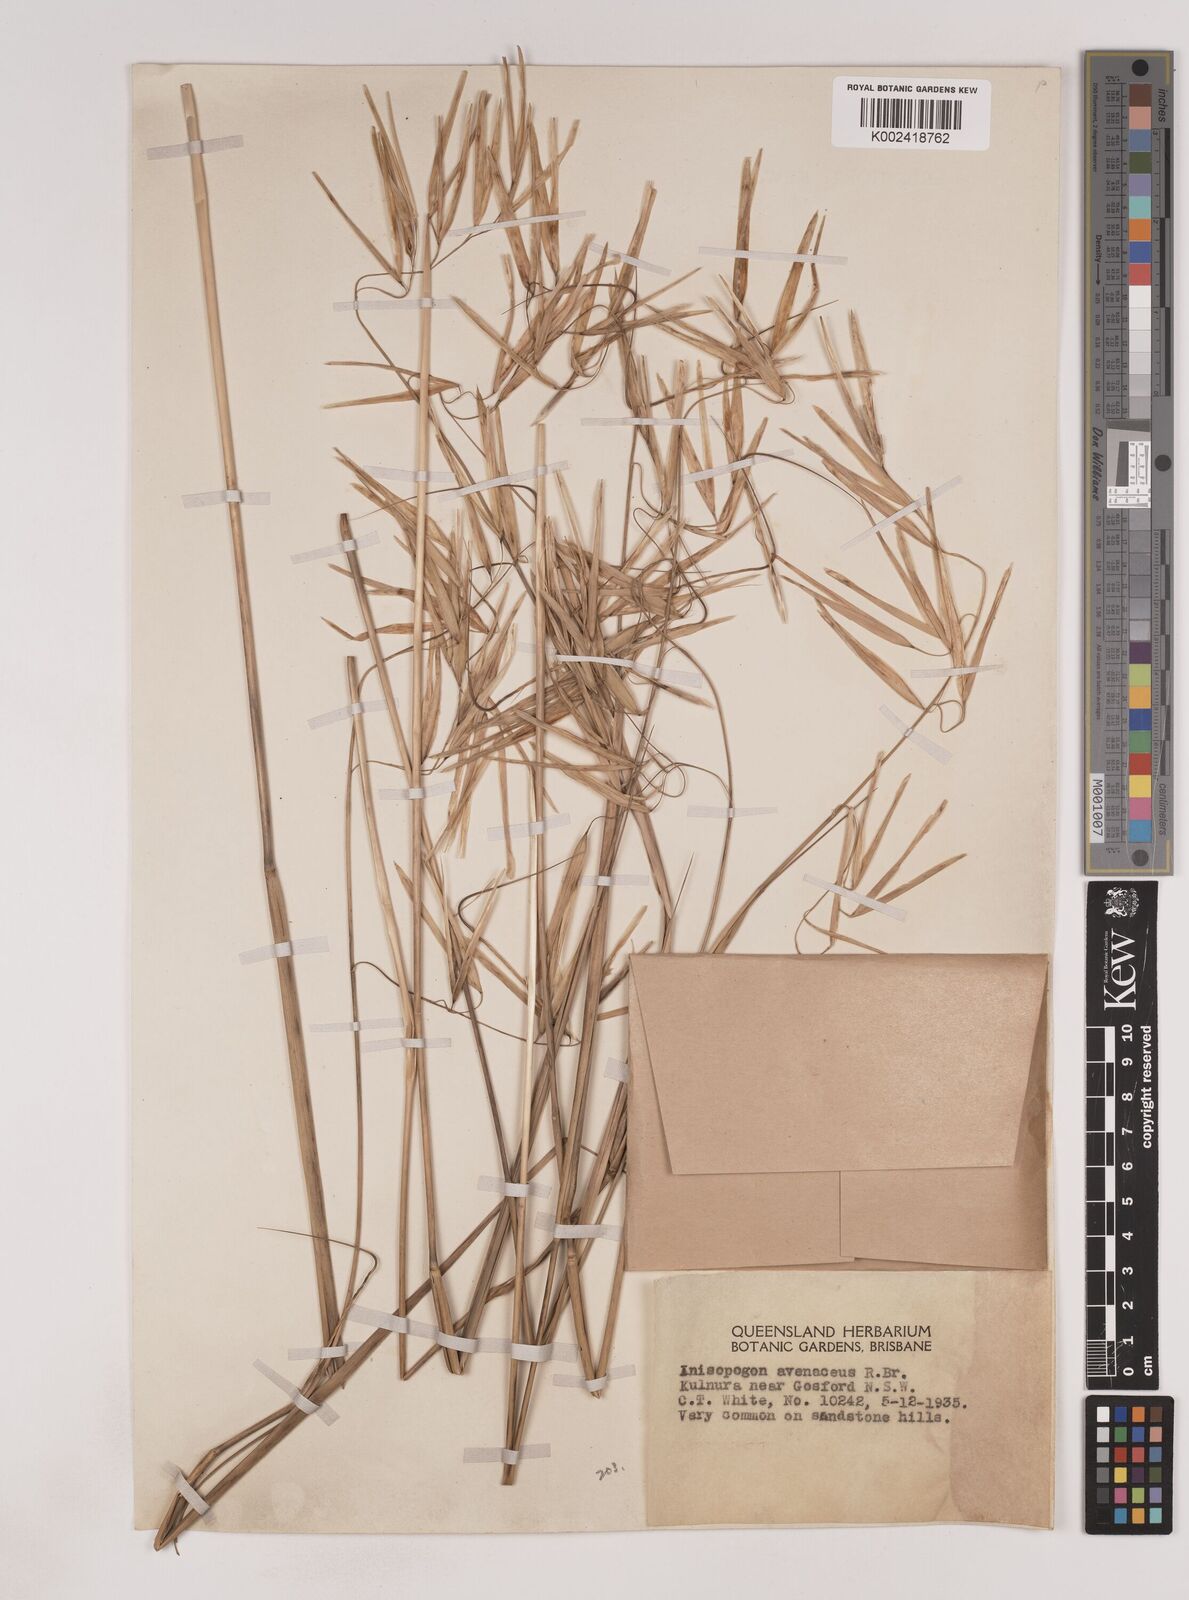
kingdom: Plantae
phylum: Tracheophyta
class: Liliopsida
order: Poales
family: Poaceae
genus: Anisopogon
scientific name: Anisopogon avenaceus
